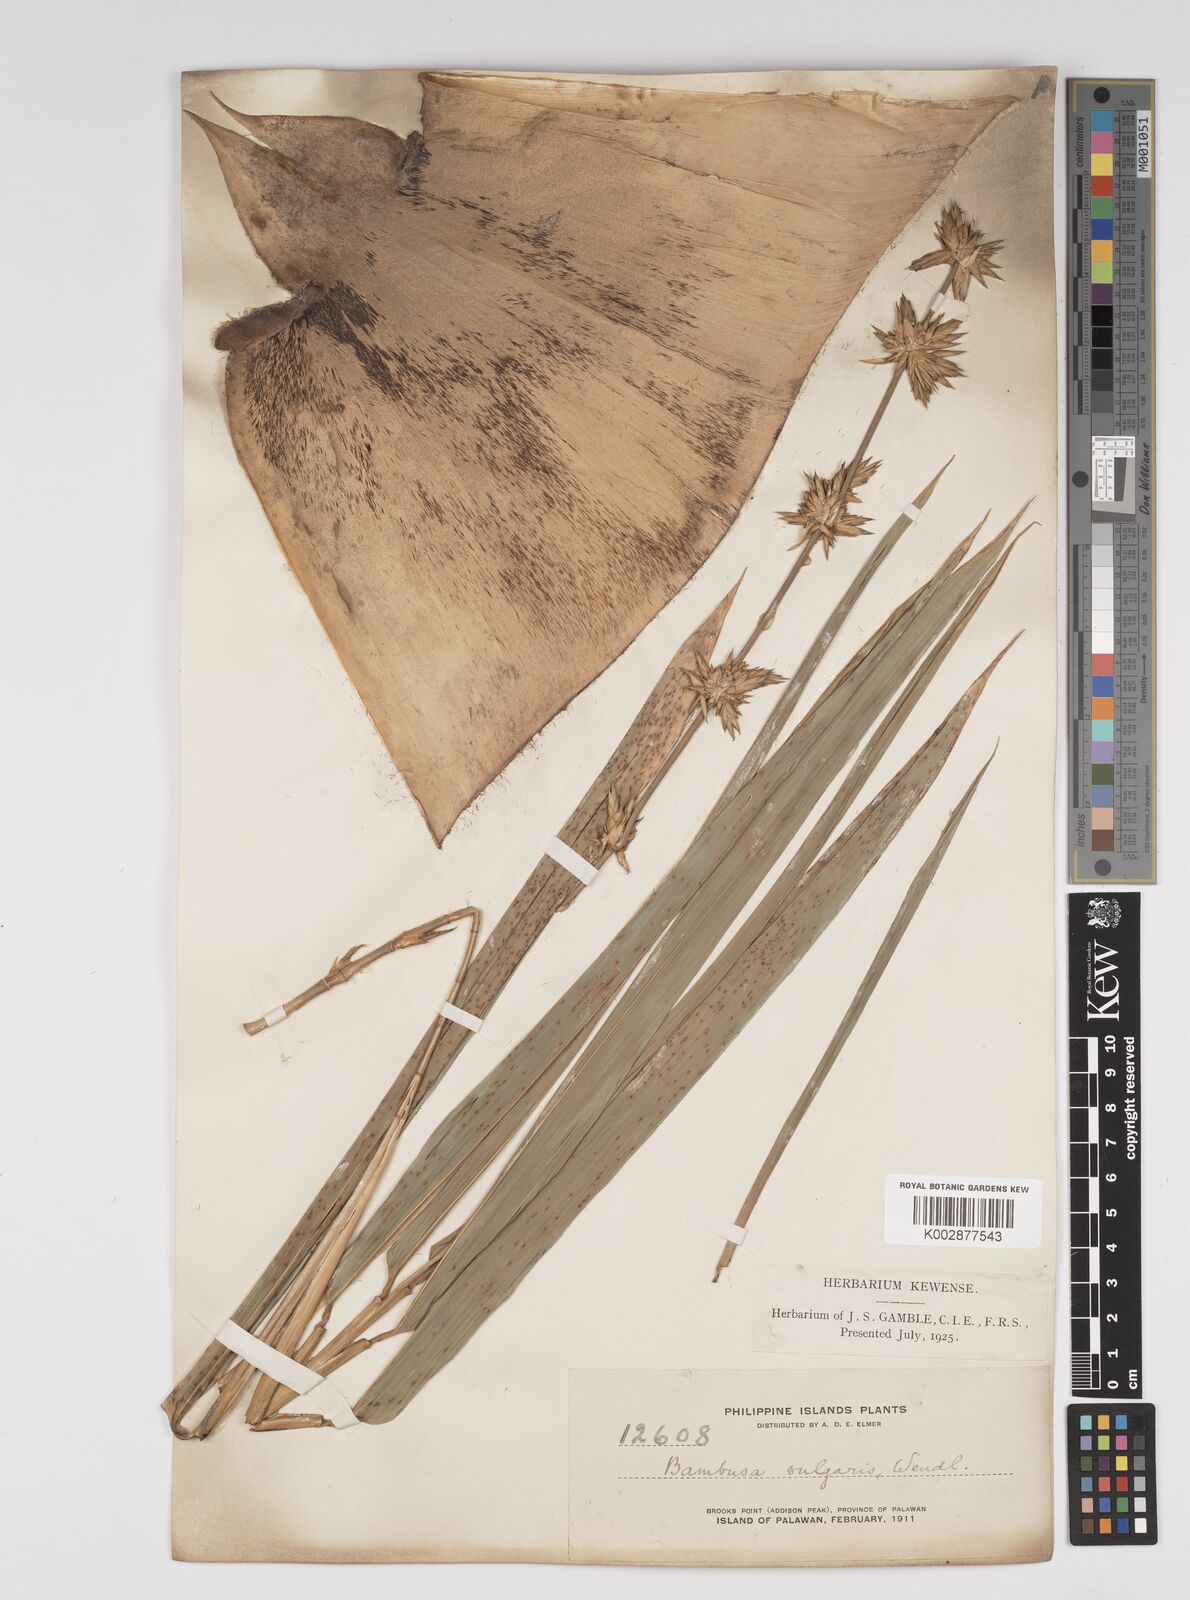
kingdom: Plantae
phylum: Tracheophyta
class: Liliopsida
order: Poales
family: Poaceae
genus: Bambusa
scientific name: Bambusa vulgaris
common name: Common bamboo
